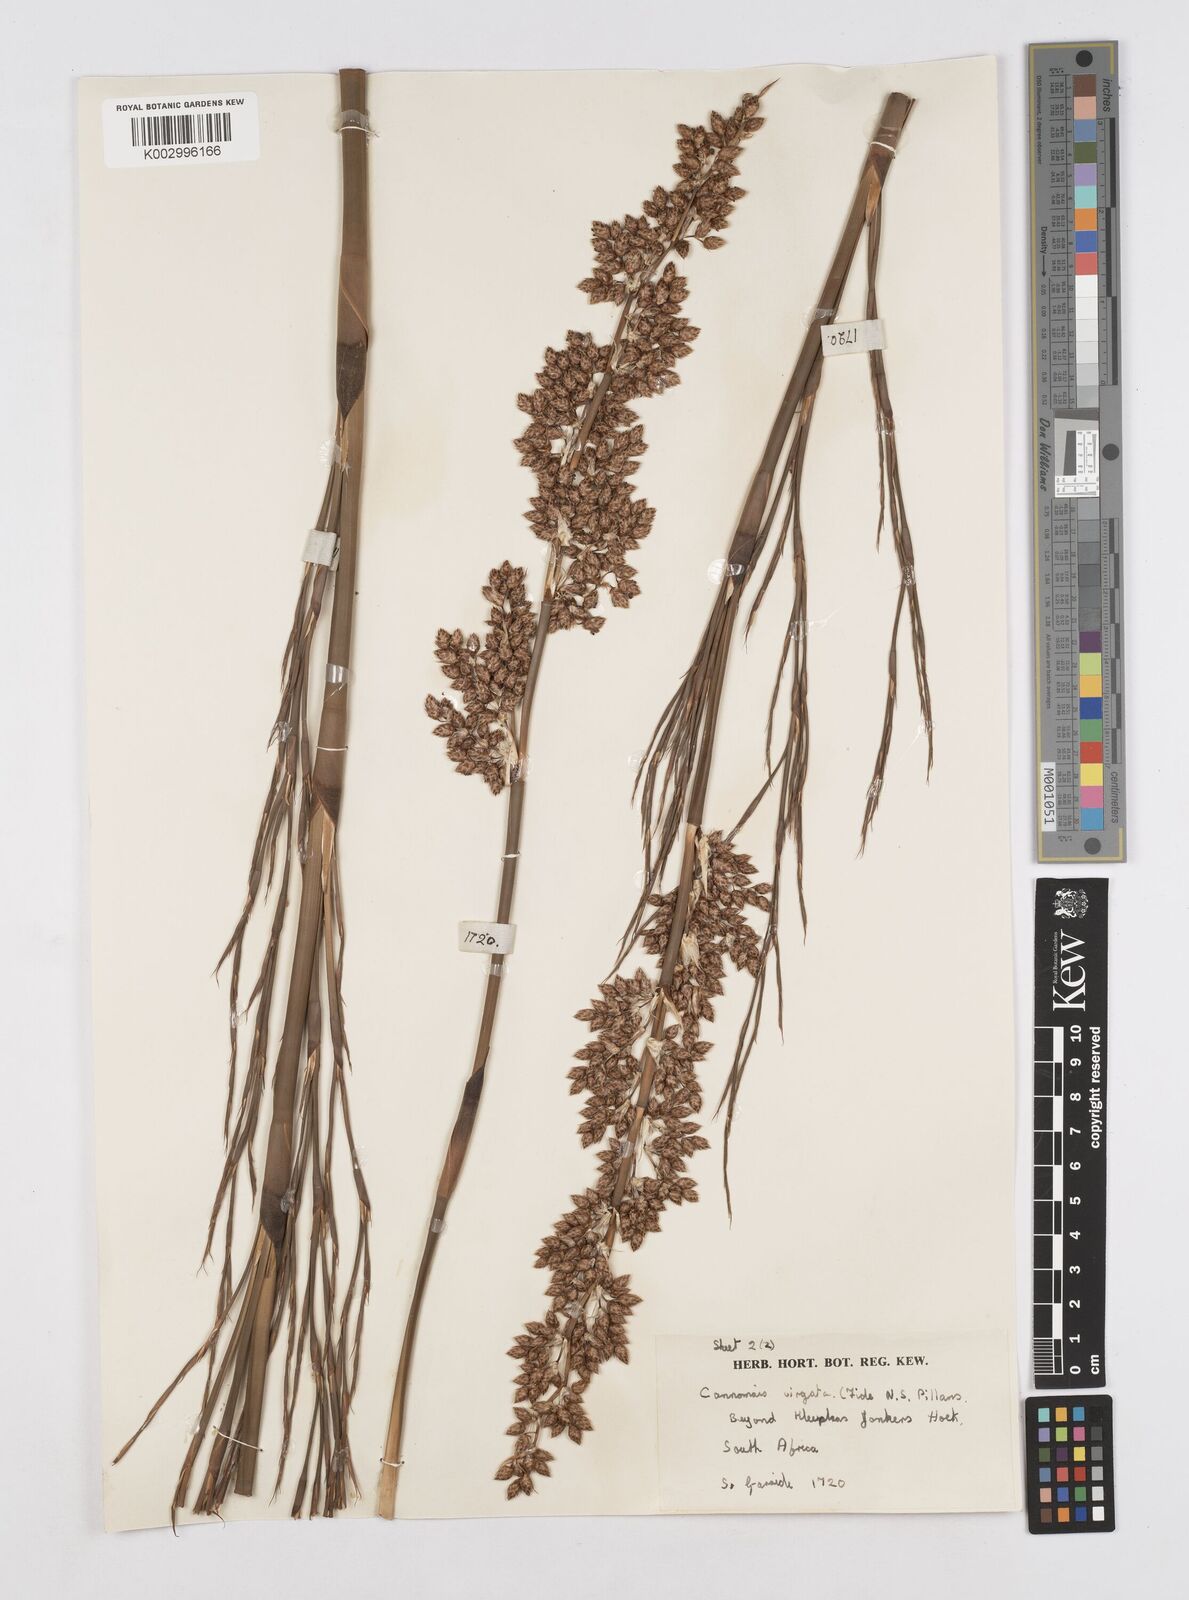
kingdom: Plantae
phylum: Tracheophyta
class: Liliopsida
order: Poales
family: Restionaceae
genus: Cannomois
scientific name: Cannomois virgata
